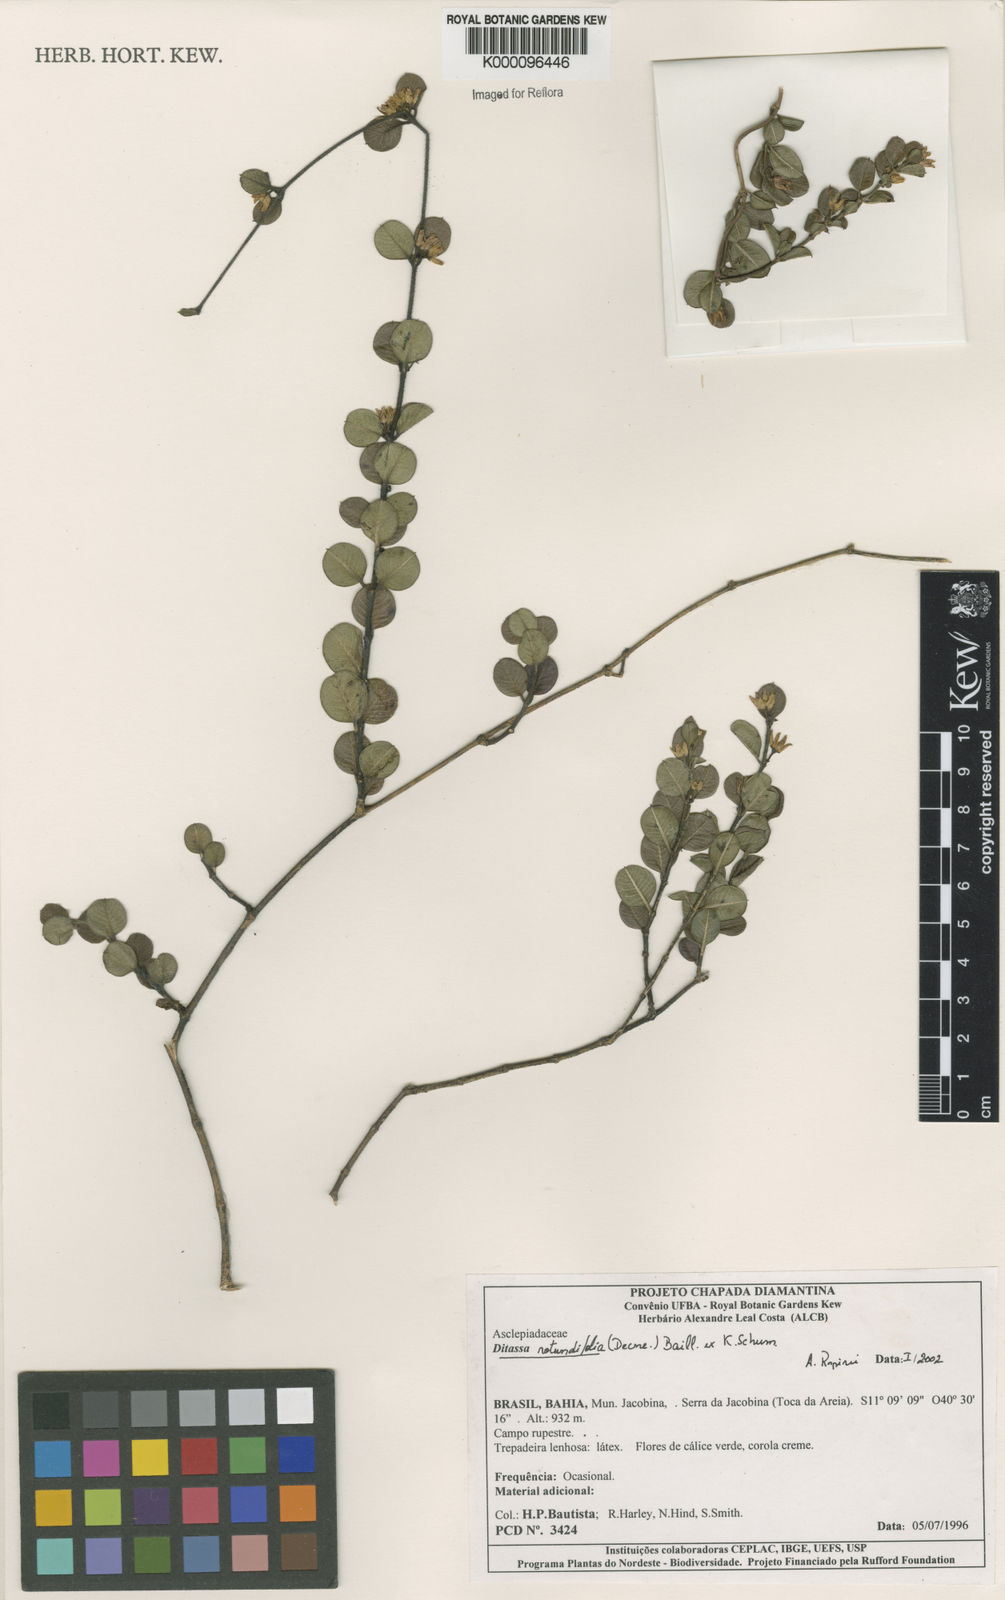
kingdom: Plantae
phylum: Tracheophyta
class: Magnoliopsida
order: Gentianales
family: Apocynaceae
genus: Ditassa
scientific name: Ditassa
